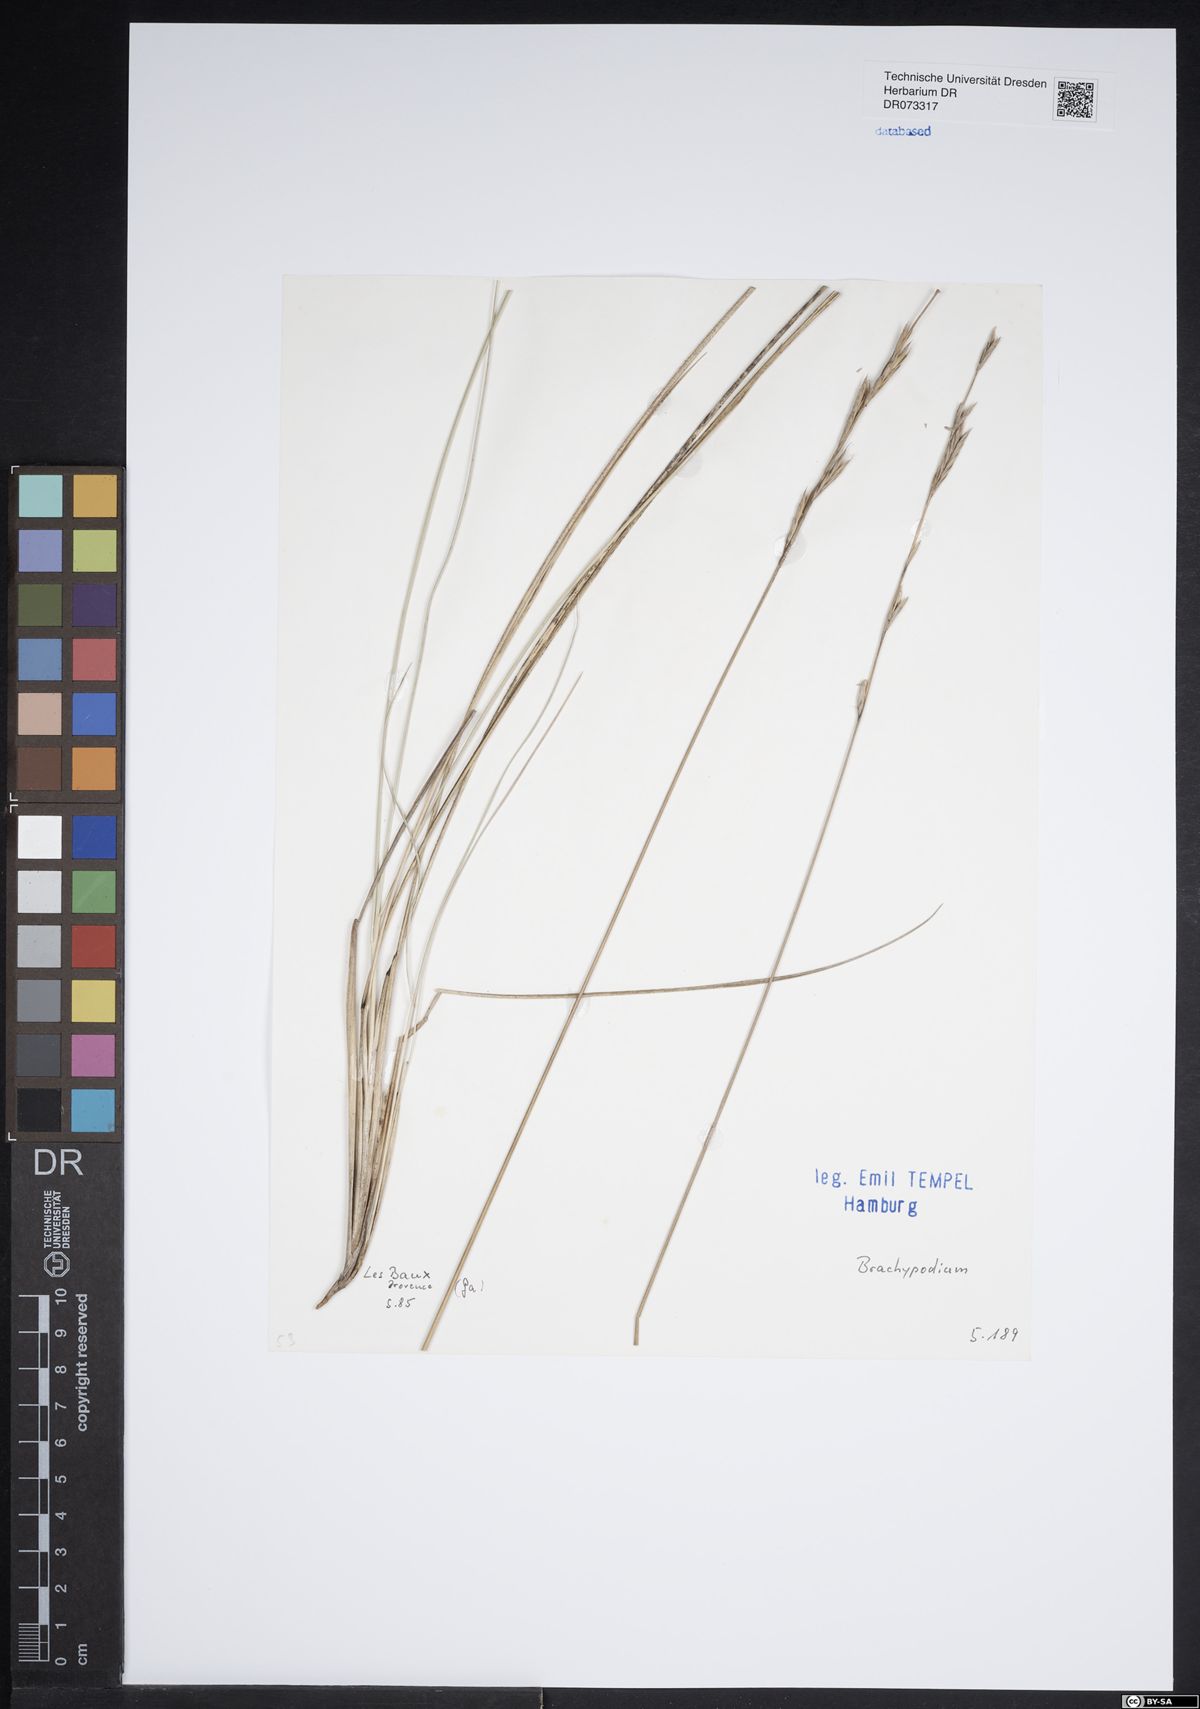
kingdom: Plantae
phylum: Tracheophyta
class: Liliopsida
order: Poales
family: Poaceae
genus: Brachypodium
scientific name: Brachypodium
